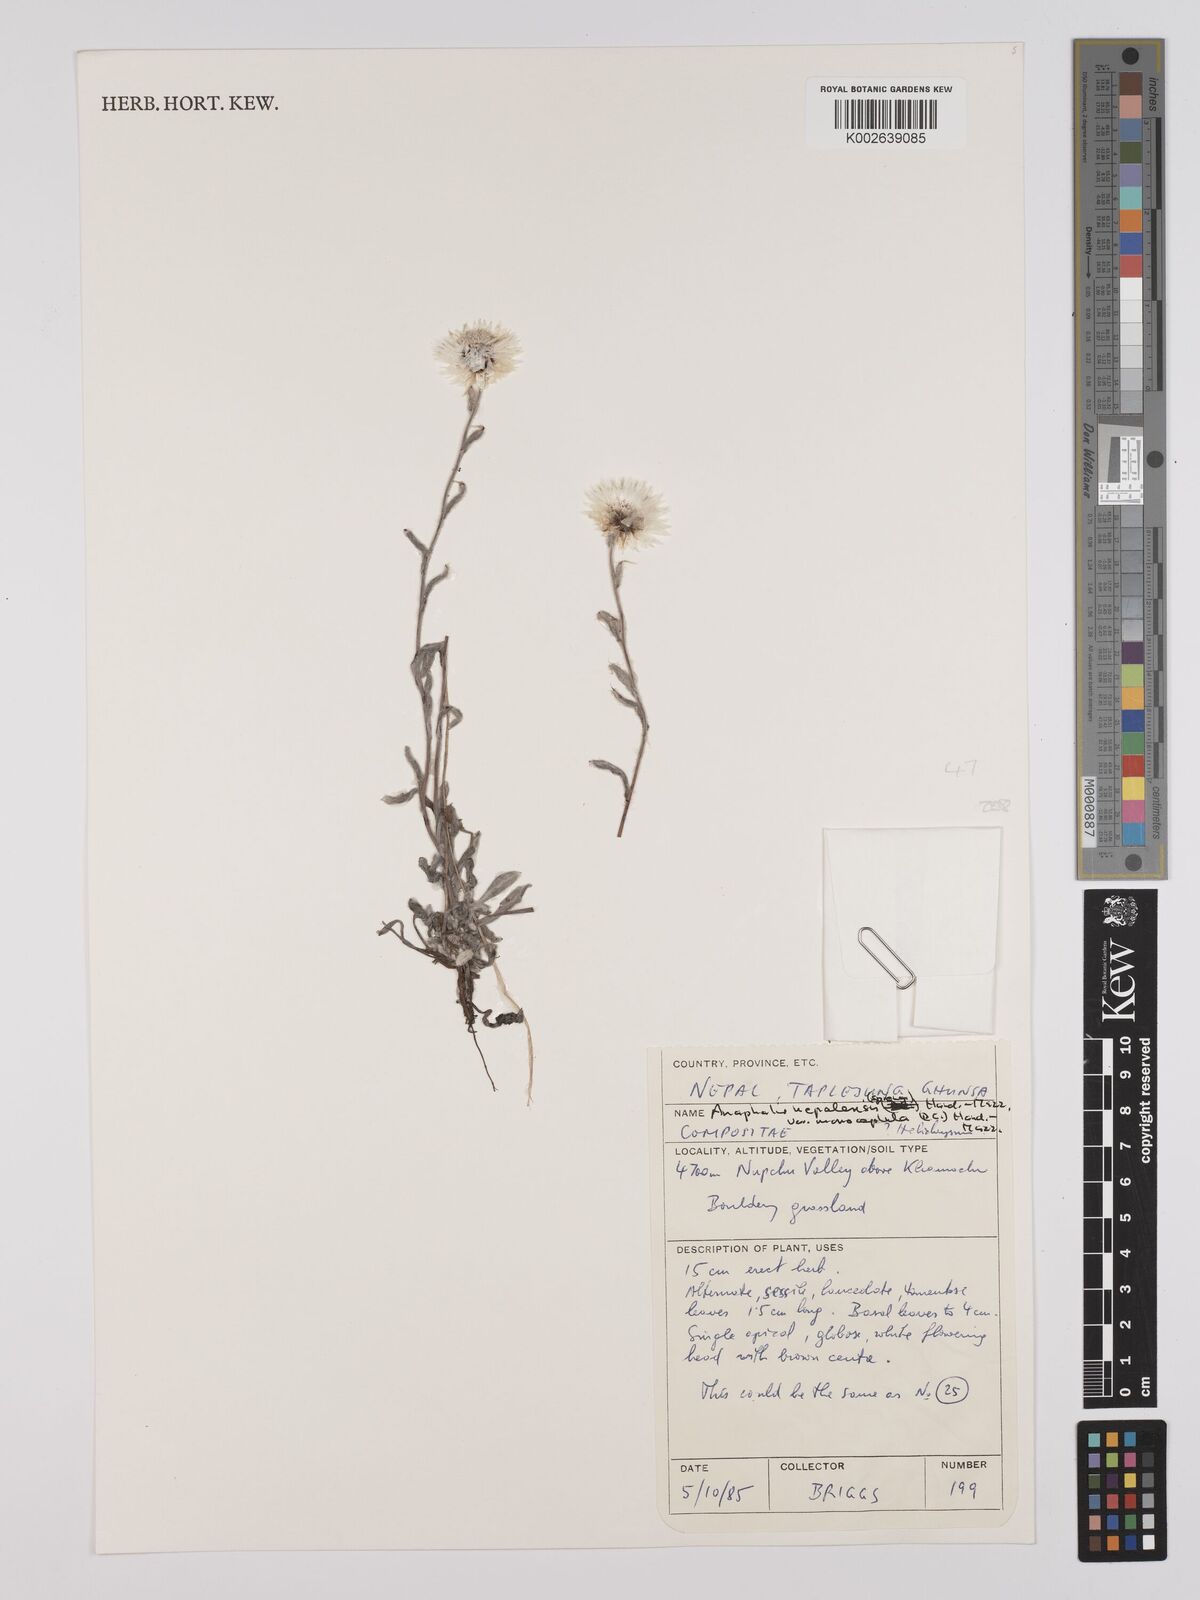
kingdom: Plantae
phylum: Tracheophyta
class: Magnoliopsida
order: Asterales
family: Asteraceae
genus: Anaphalis
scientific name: Anaphalis nepalensis
